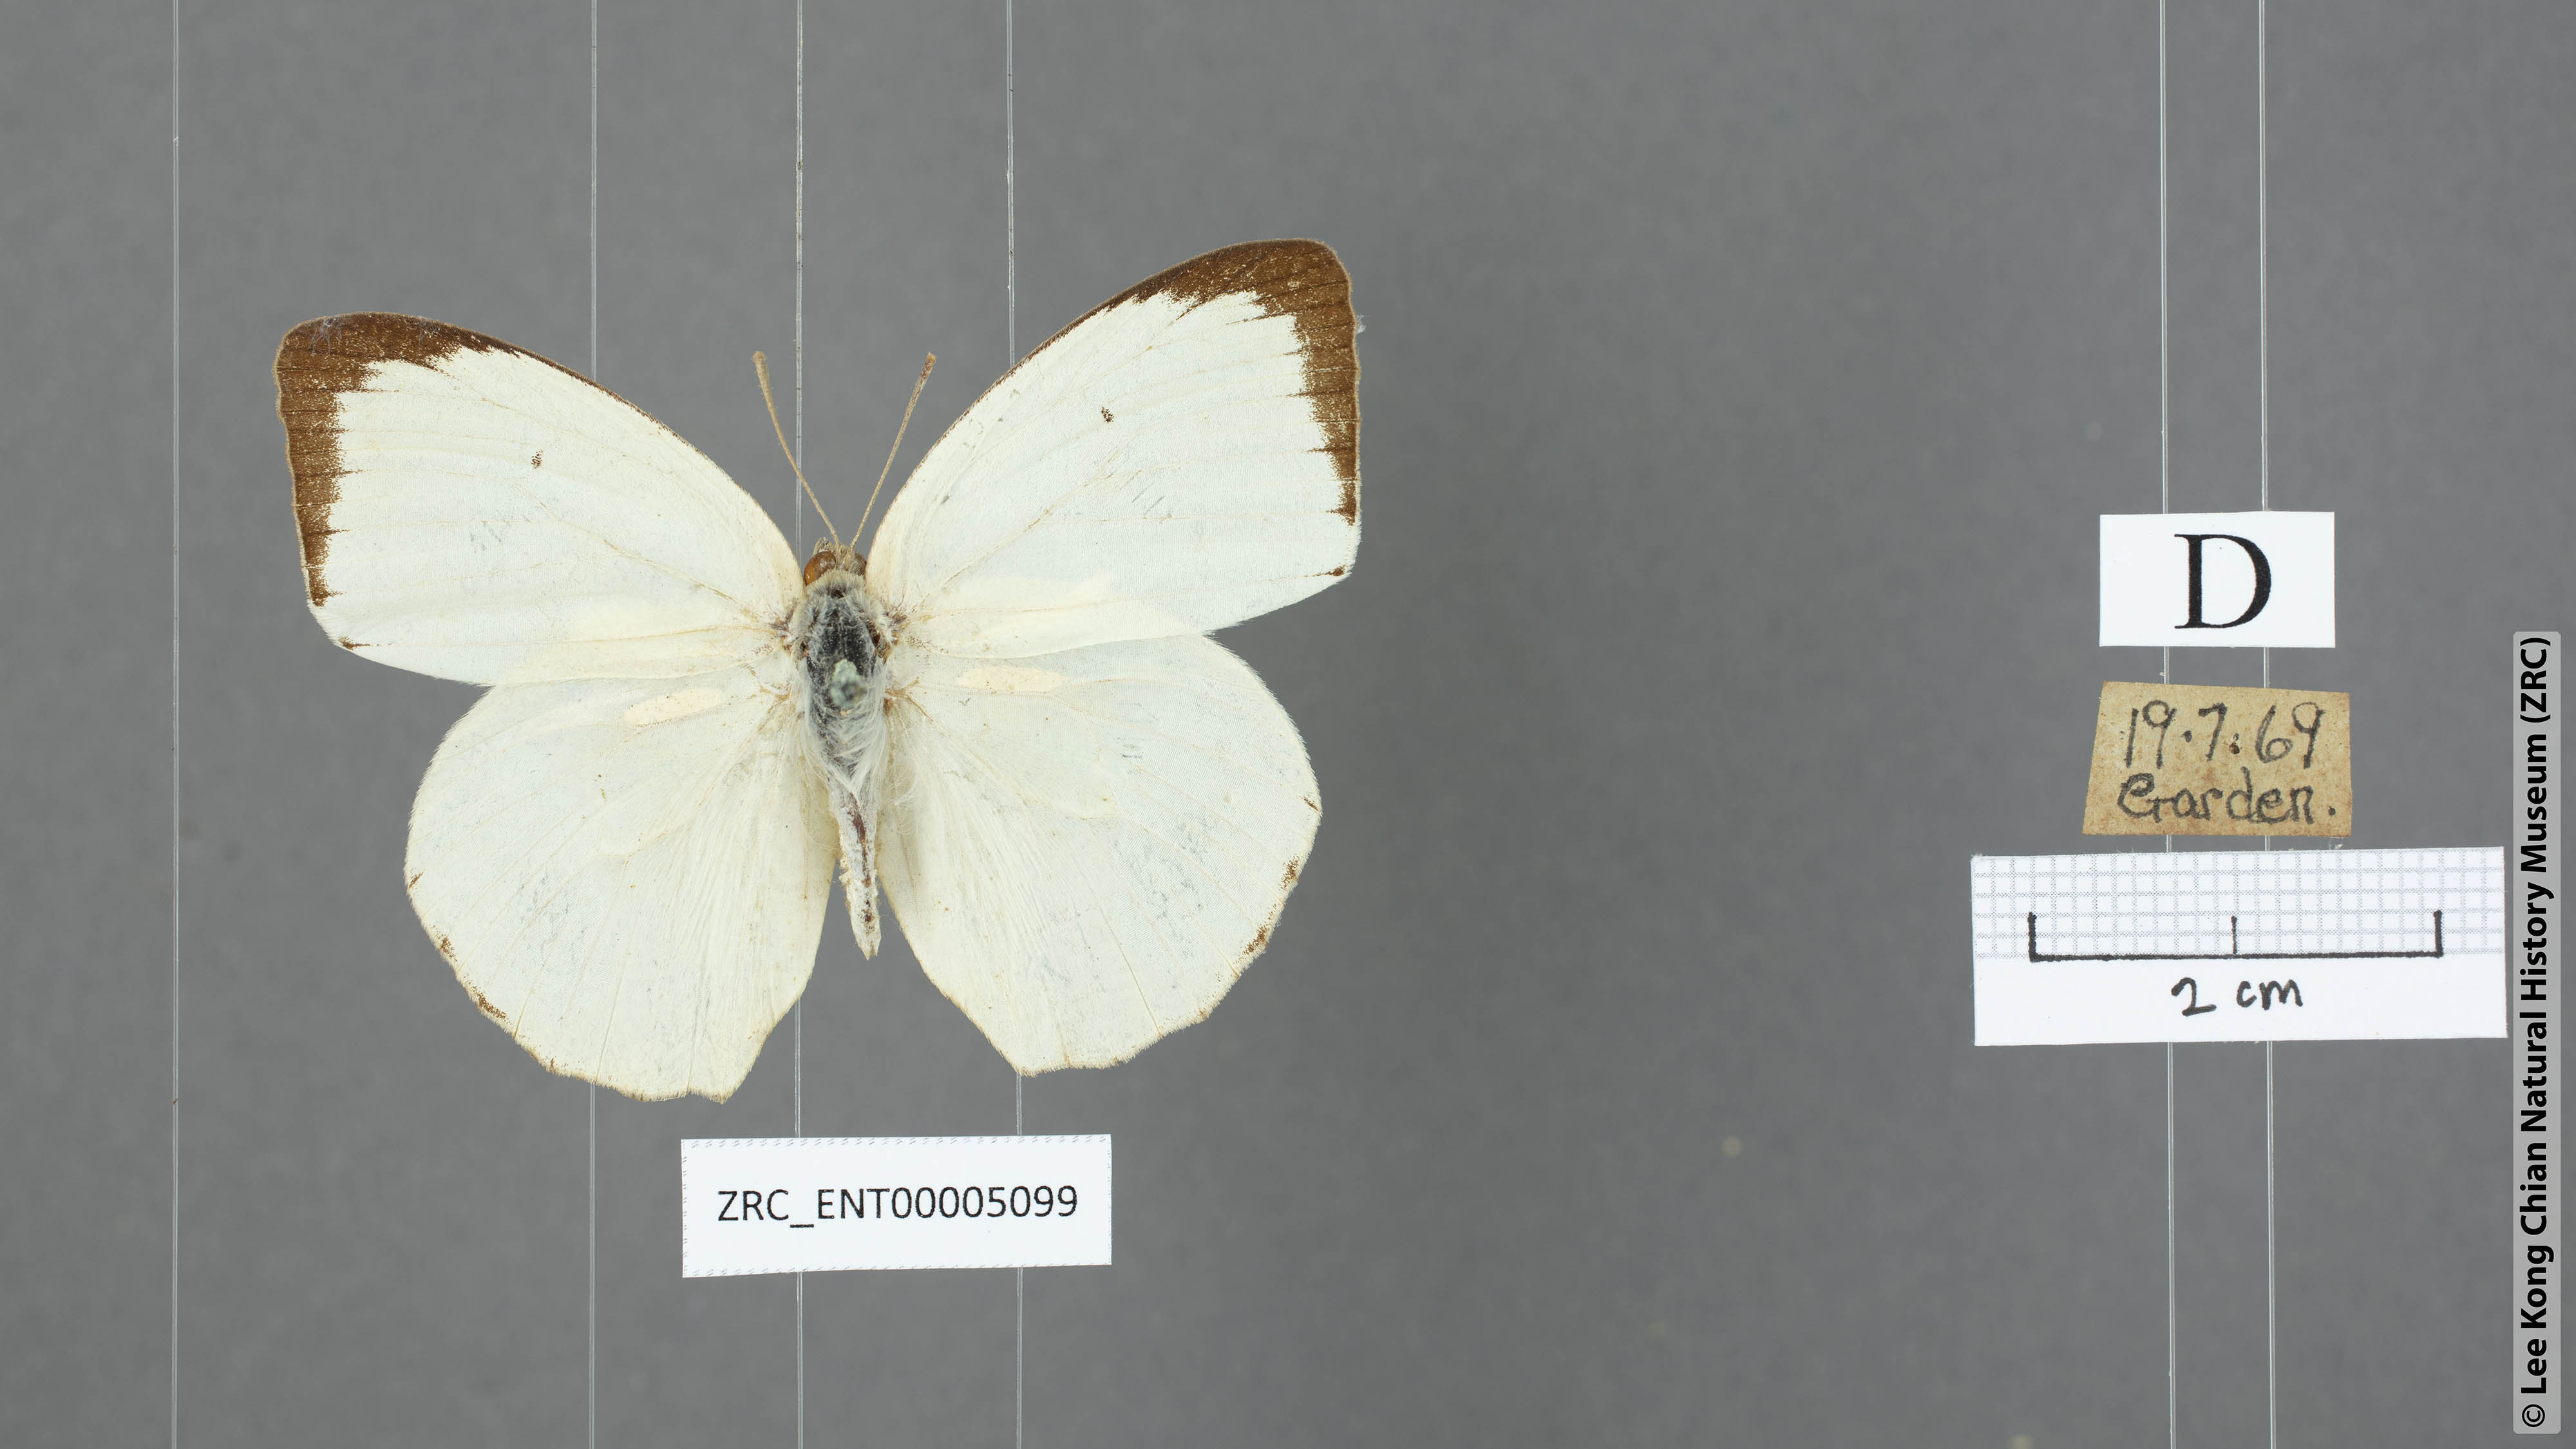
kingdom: Animalia
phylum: Arthropoda
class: Insecta
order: Lepidoptera
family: Pieridae
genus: Catopsilia
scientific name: Catopsilia pyranthe
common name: Mottled emigrant
